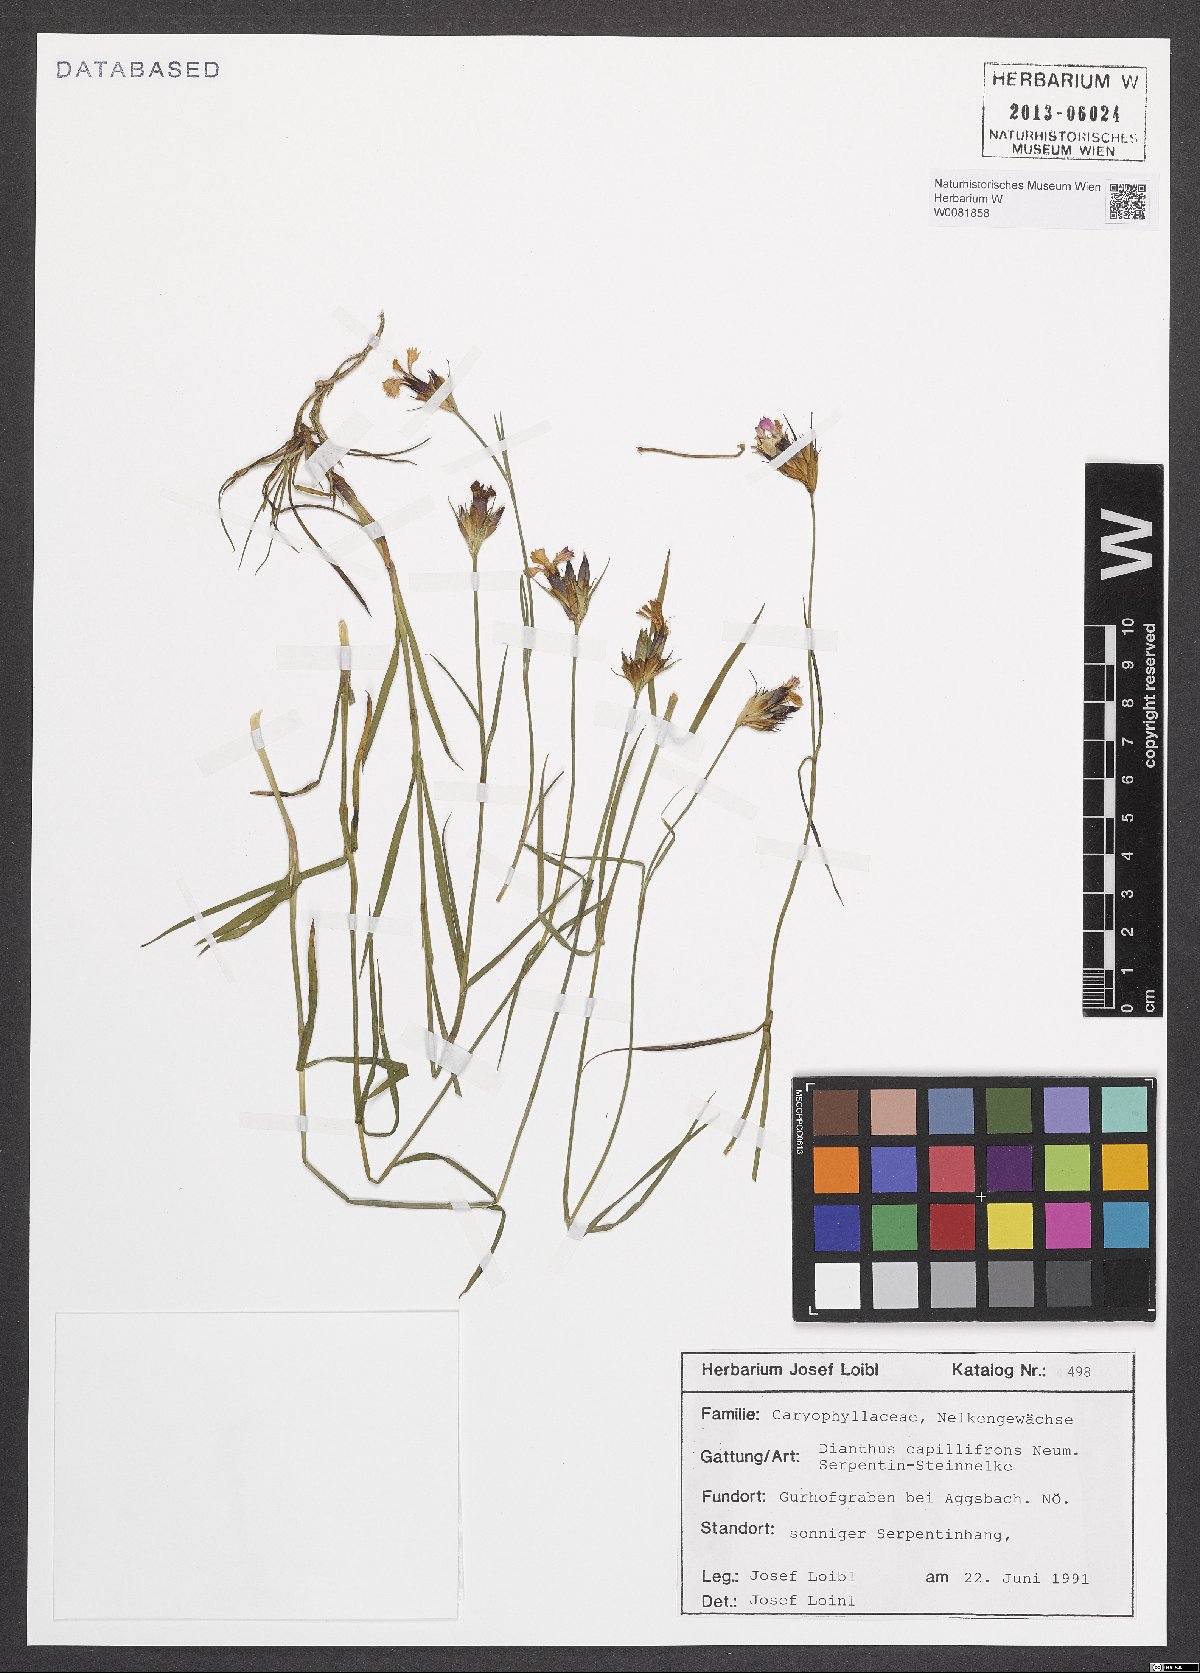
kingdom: Plantae
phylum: Tracheophyta
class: Magnoliopsida
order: Caryophyllales
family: Caryophyllaceae
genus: Dianthus
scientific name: Dianthus carthusianorum
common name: Carthusian pink
